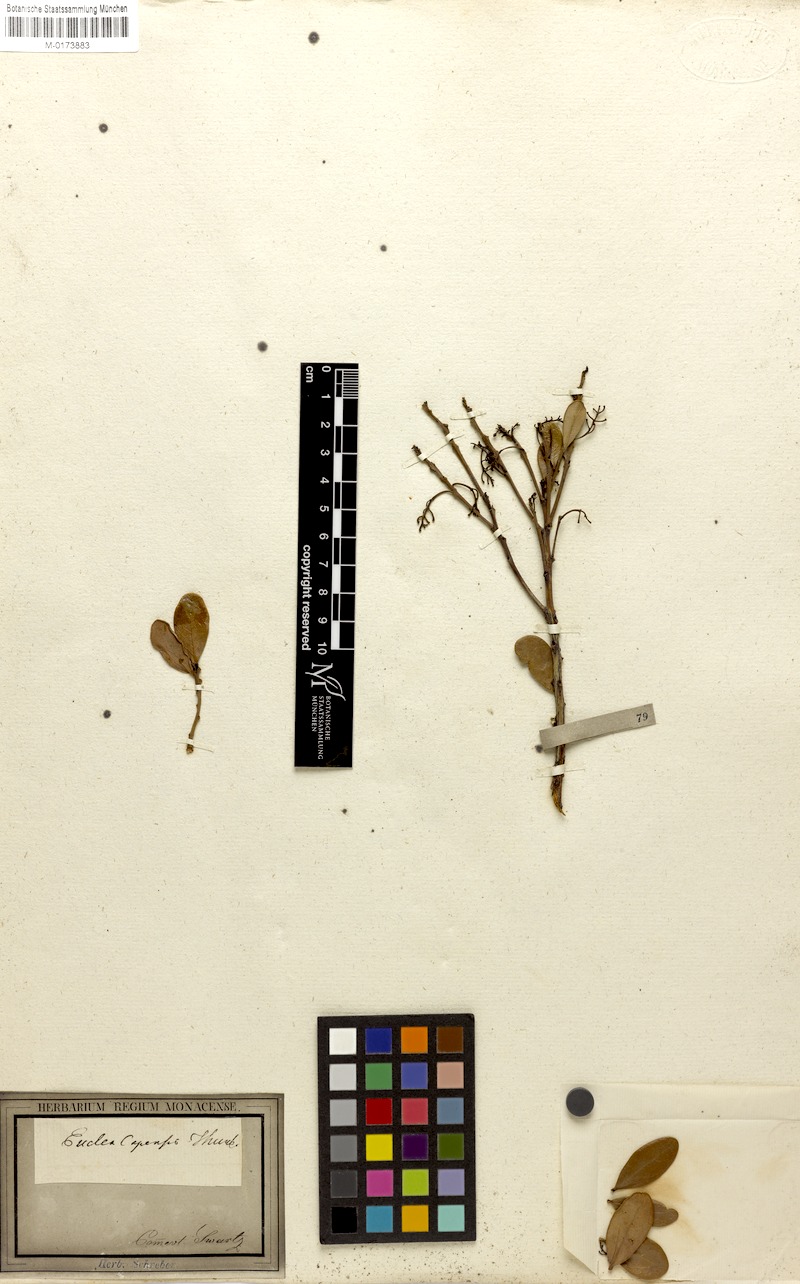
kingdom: Plantae
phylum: Tracheophyta
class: Magnoliopsida
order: Ericales
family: Ebenaceae
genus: Euclea
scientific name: Euclea
